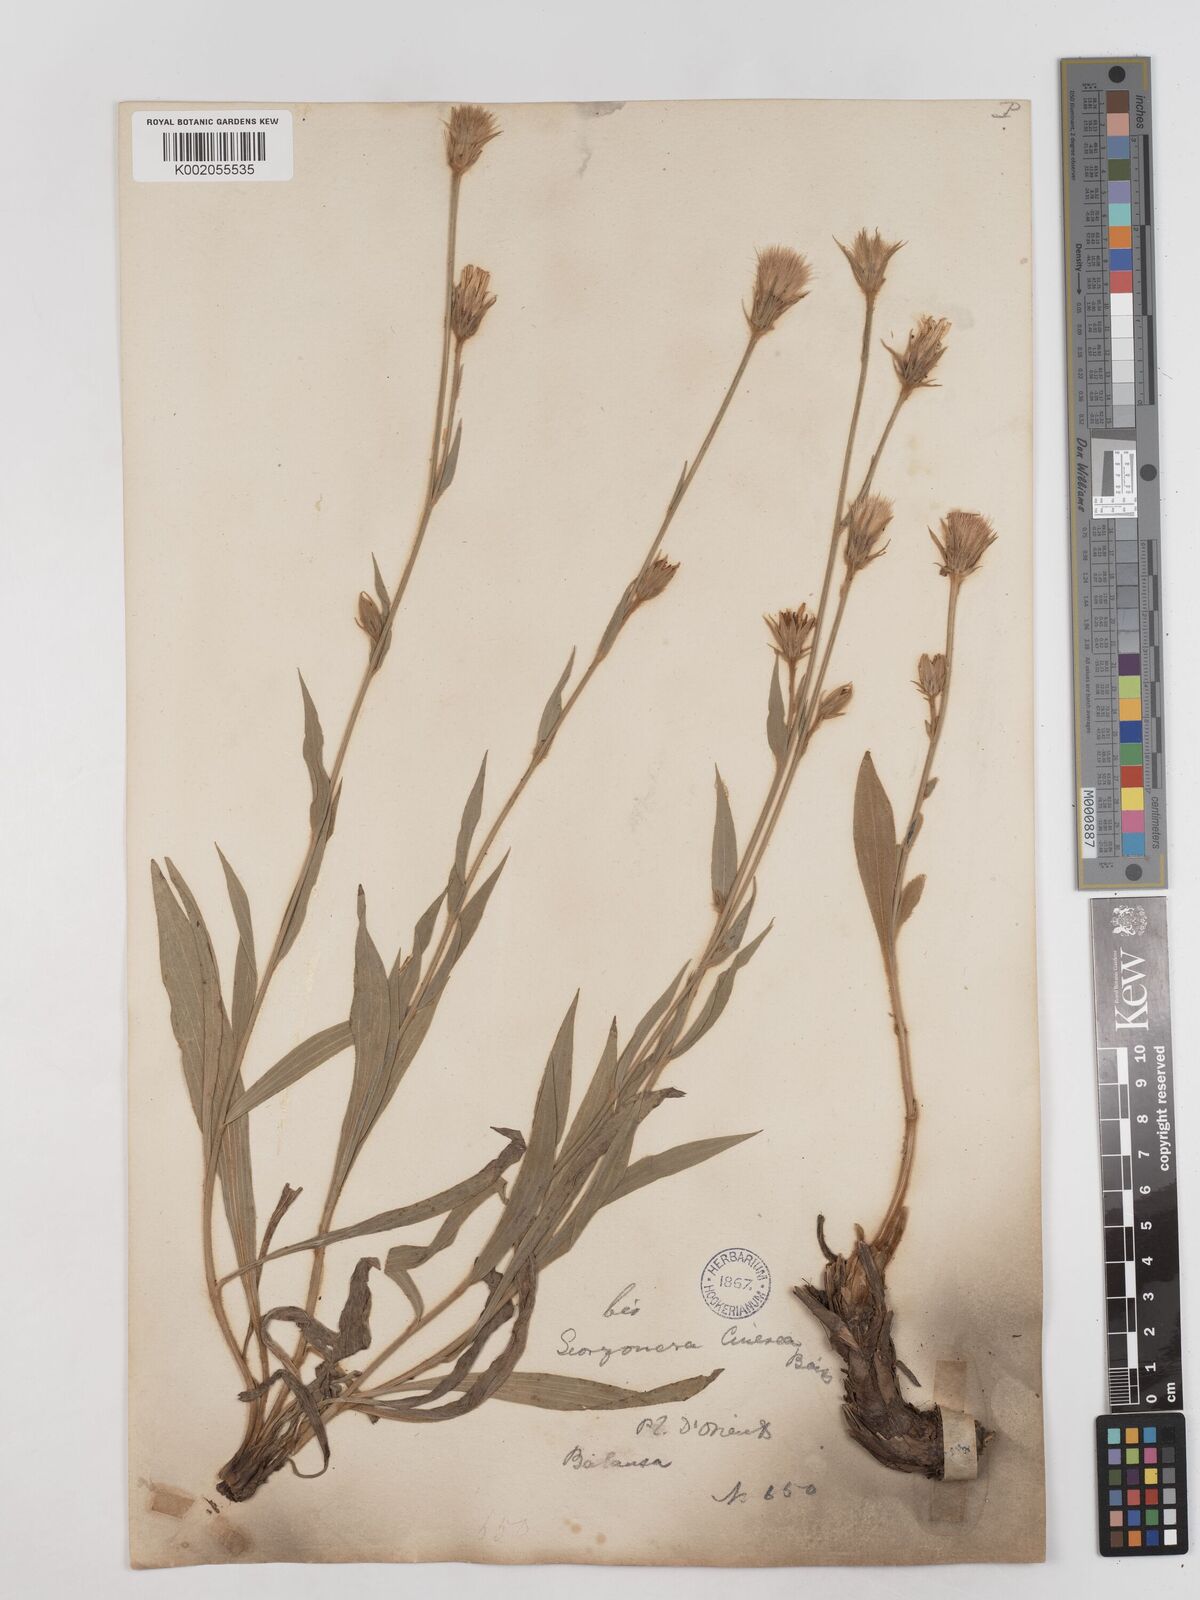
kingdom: Plantae
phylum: Tracheophyta
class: Magnoliopsida
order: Asterales
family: Asteraceae
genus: Cigdemia
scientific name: Cigdemia cinerea
